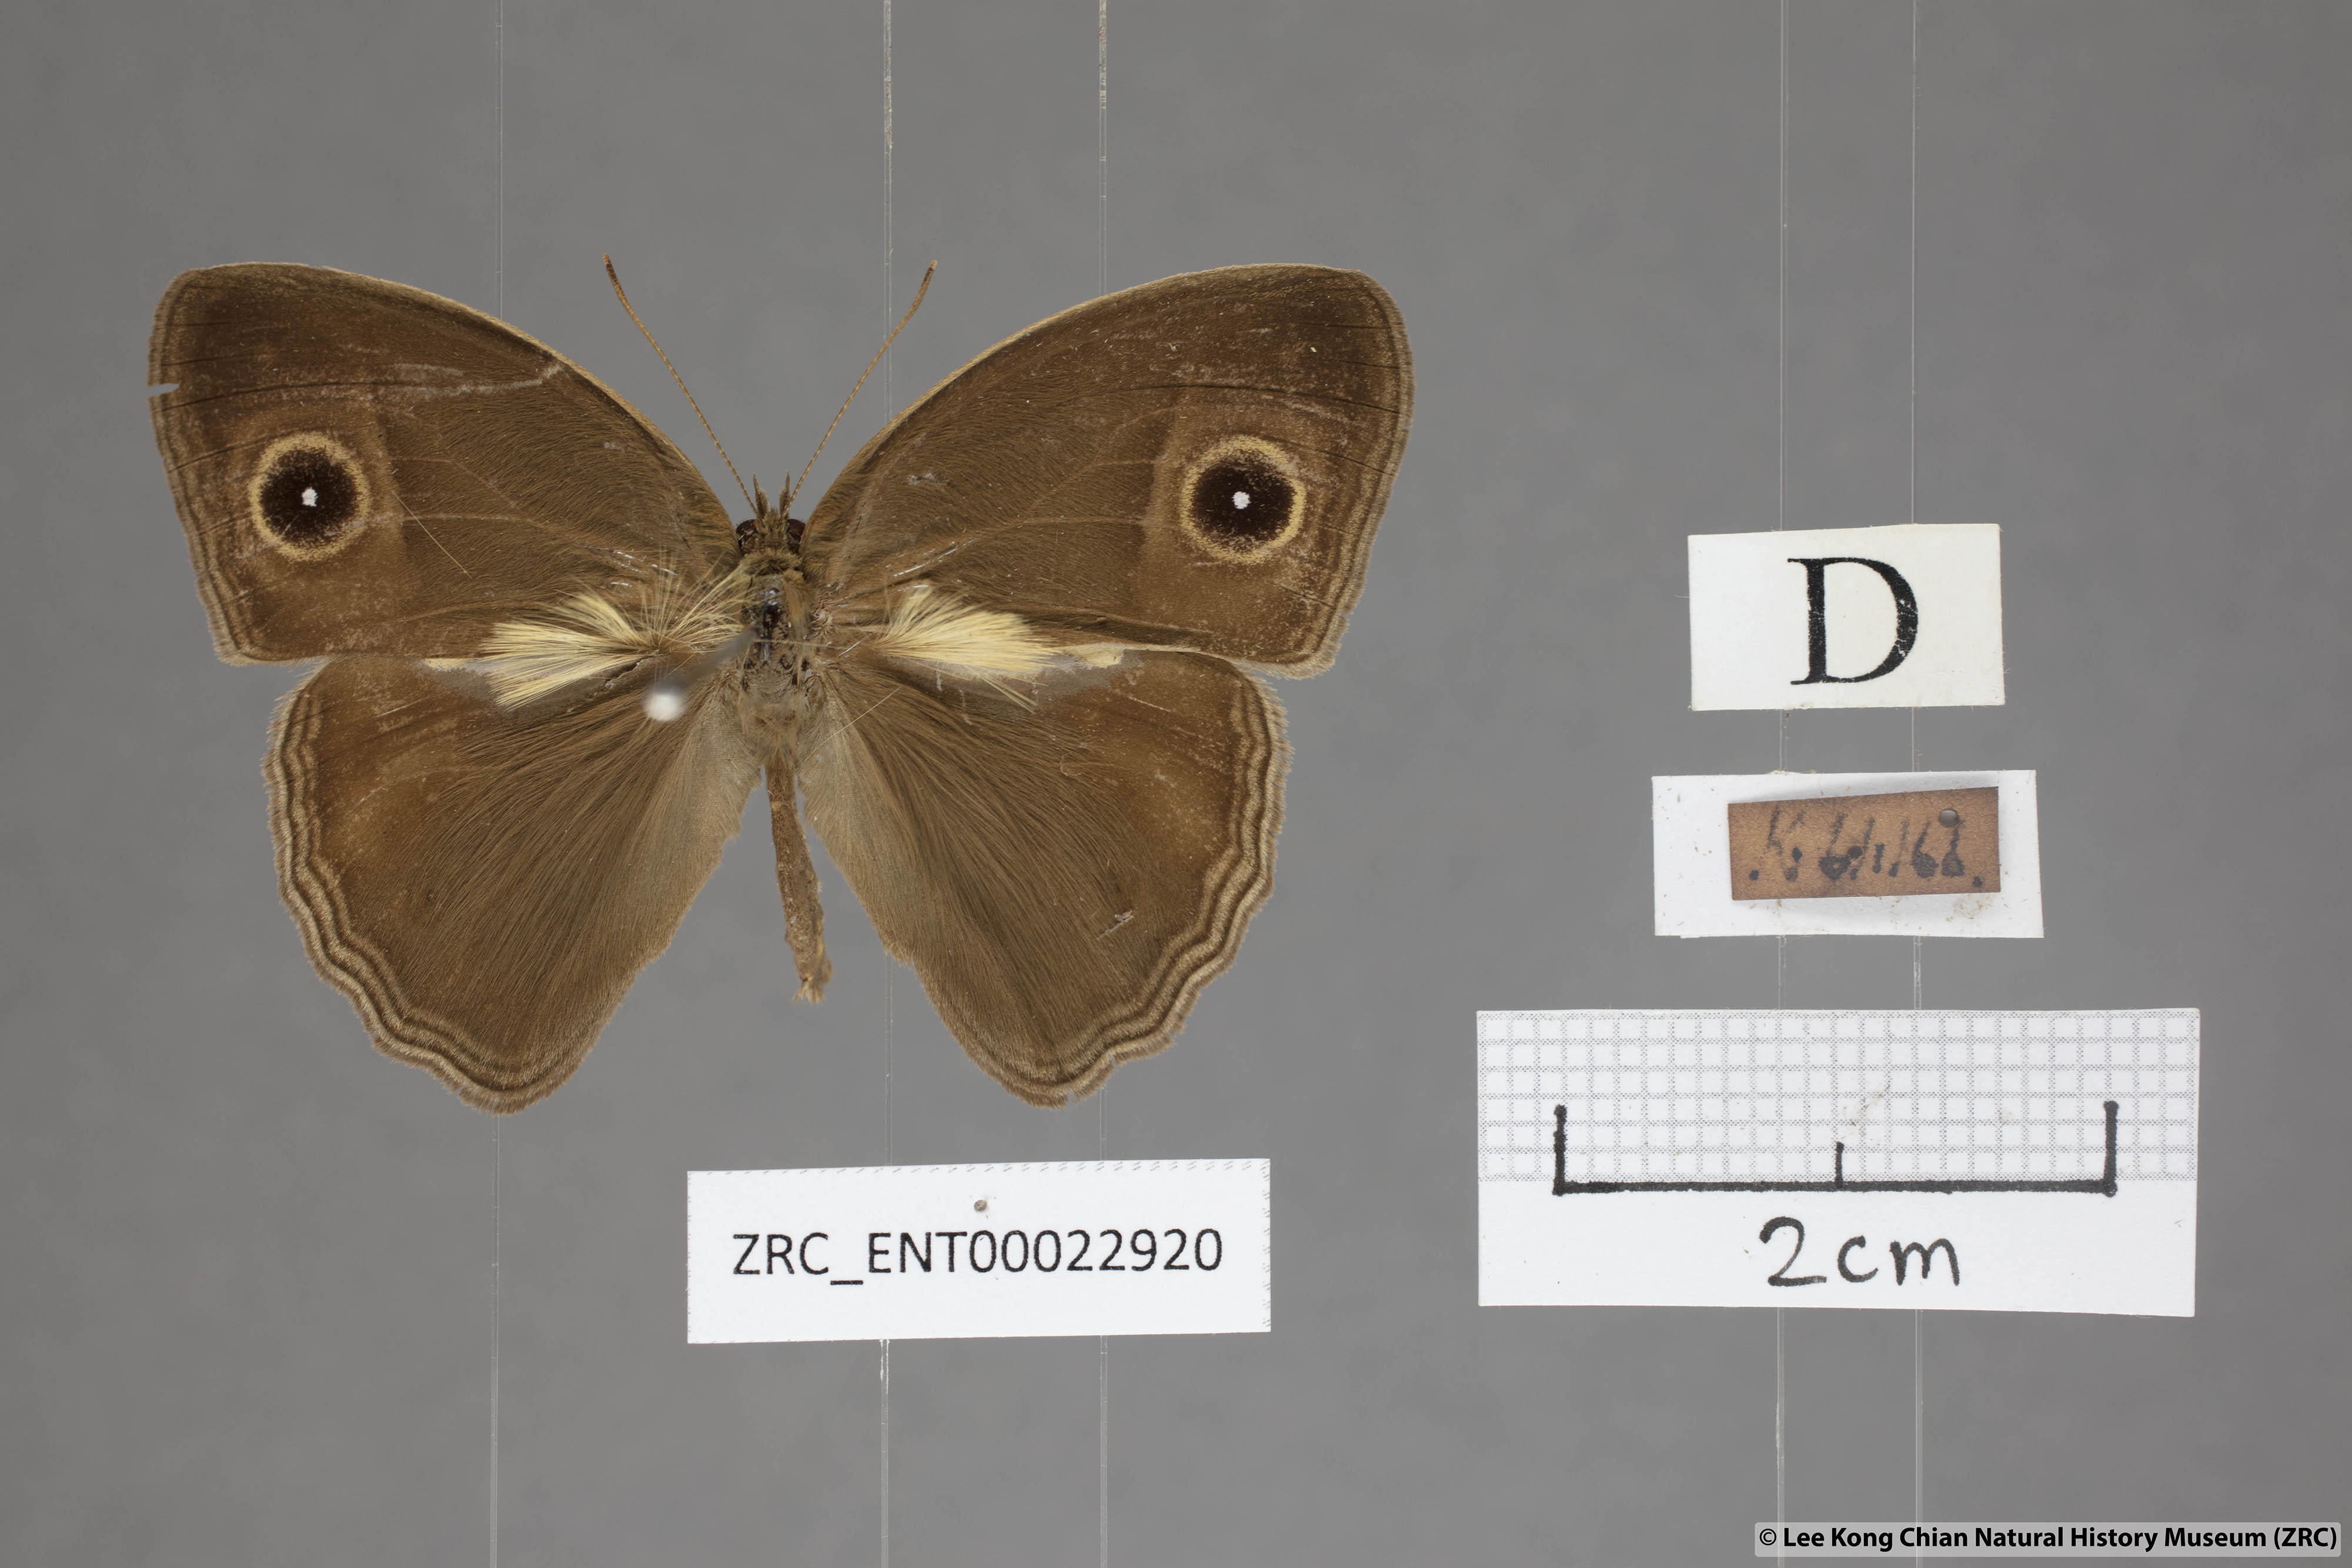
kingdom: Animalia
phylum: Arthropoda
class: Insecta
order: Lepidoptera
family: Nymphalidae
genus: Mycalesis
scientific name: Mycalesis horsfieldii
